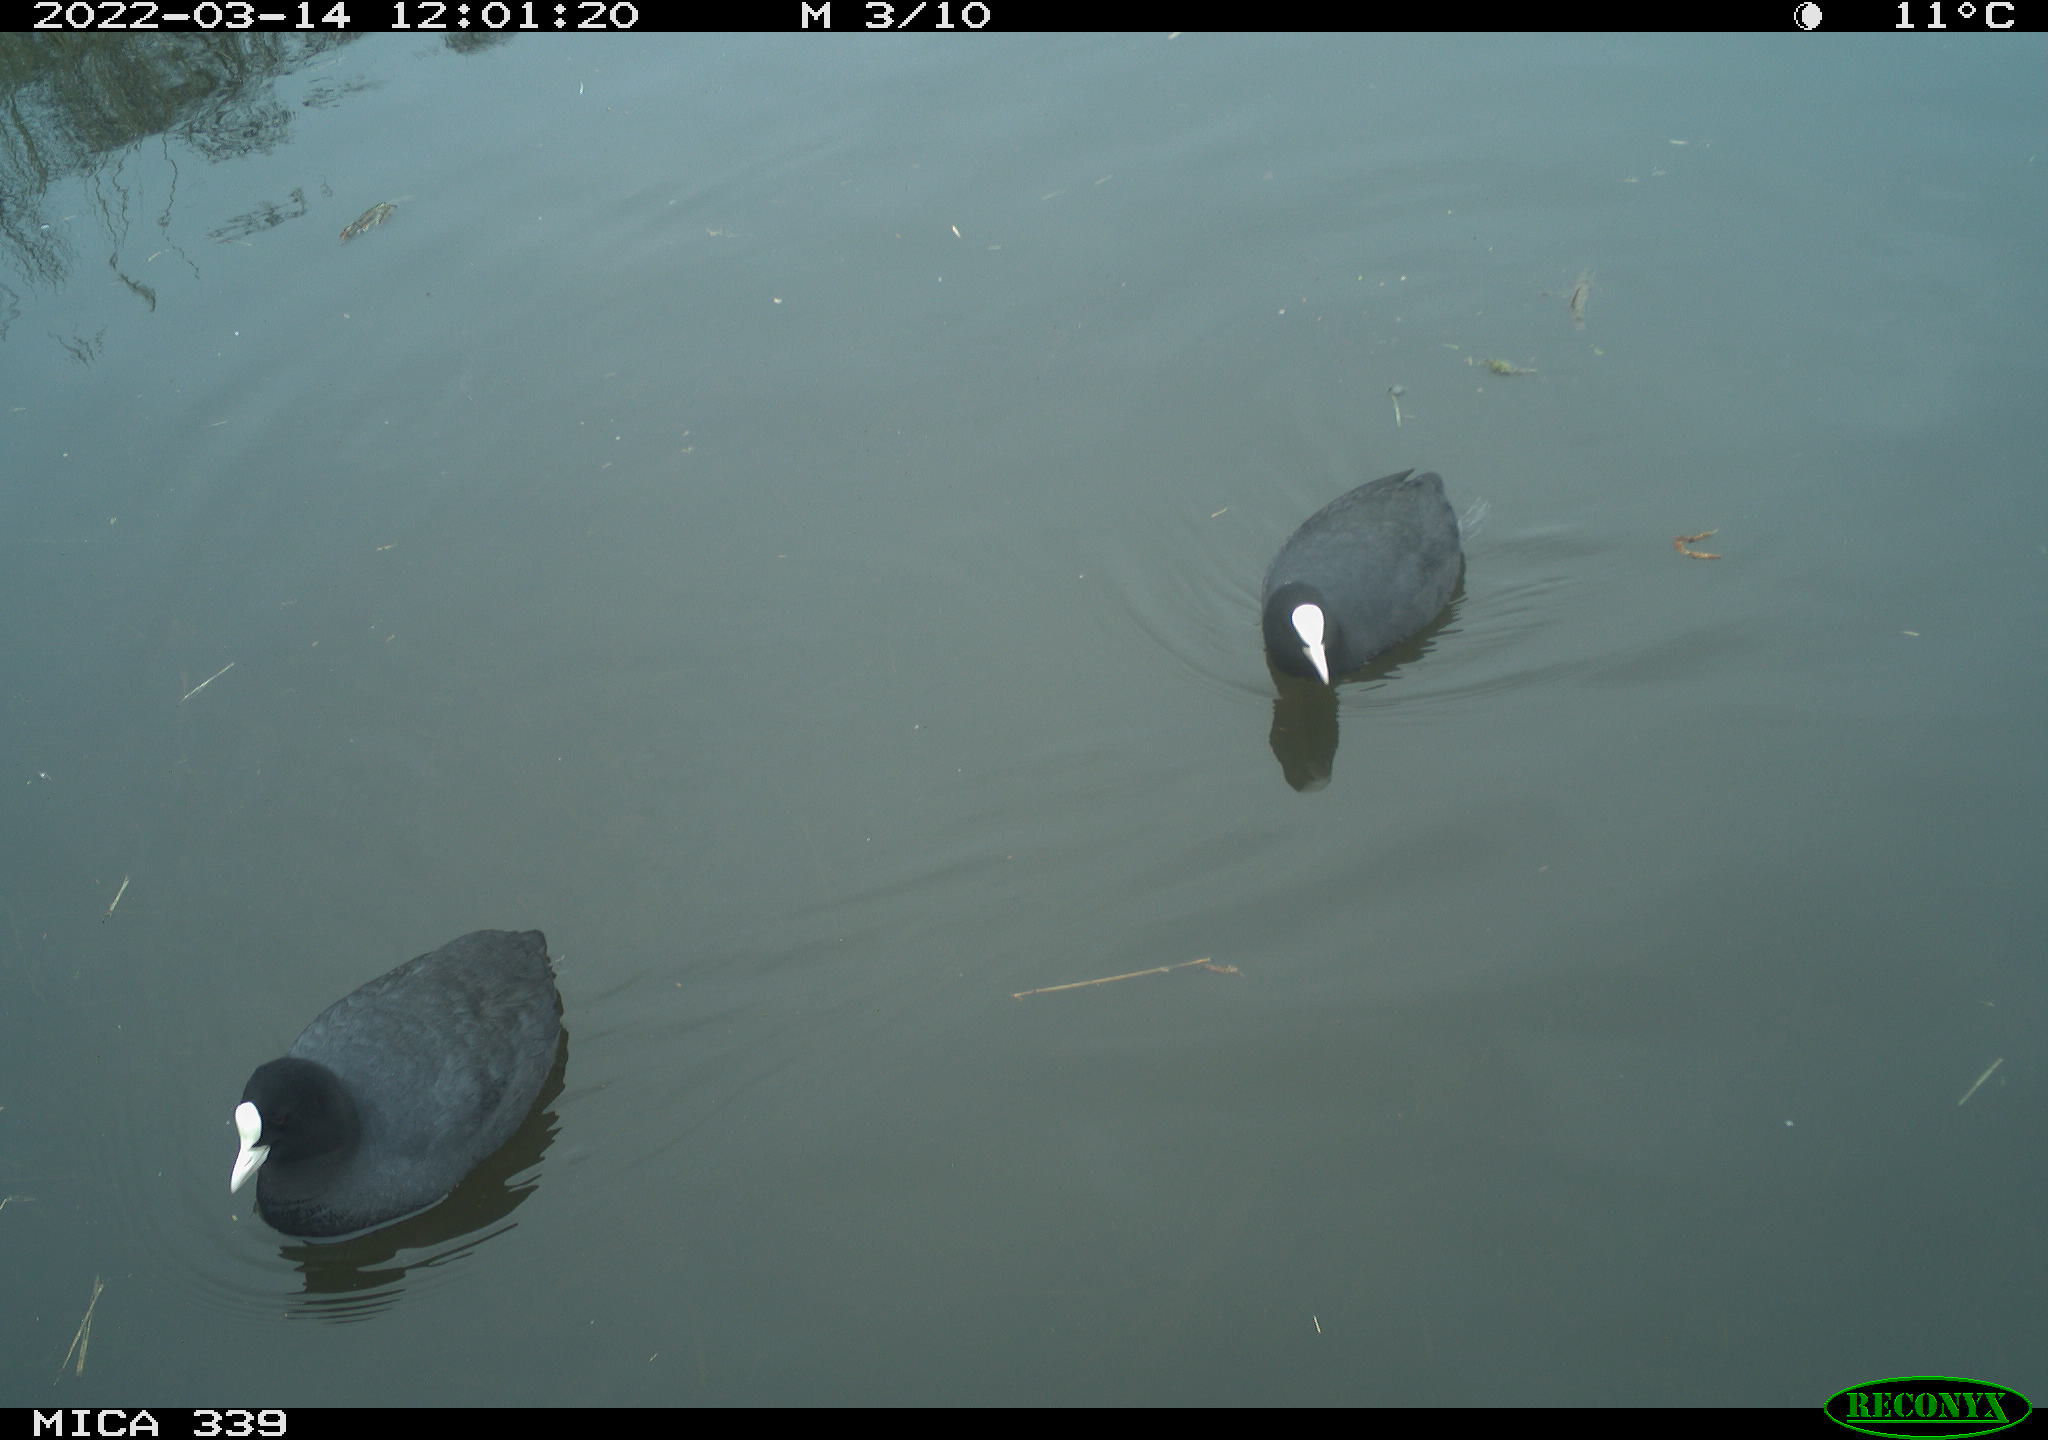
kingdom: Animalia
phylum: Chordata
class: Aves
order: Gruiformes
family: Rallidae
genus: Fulica
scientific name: Fulica atra
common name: Eurasian coot
